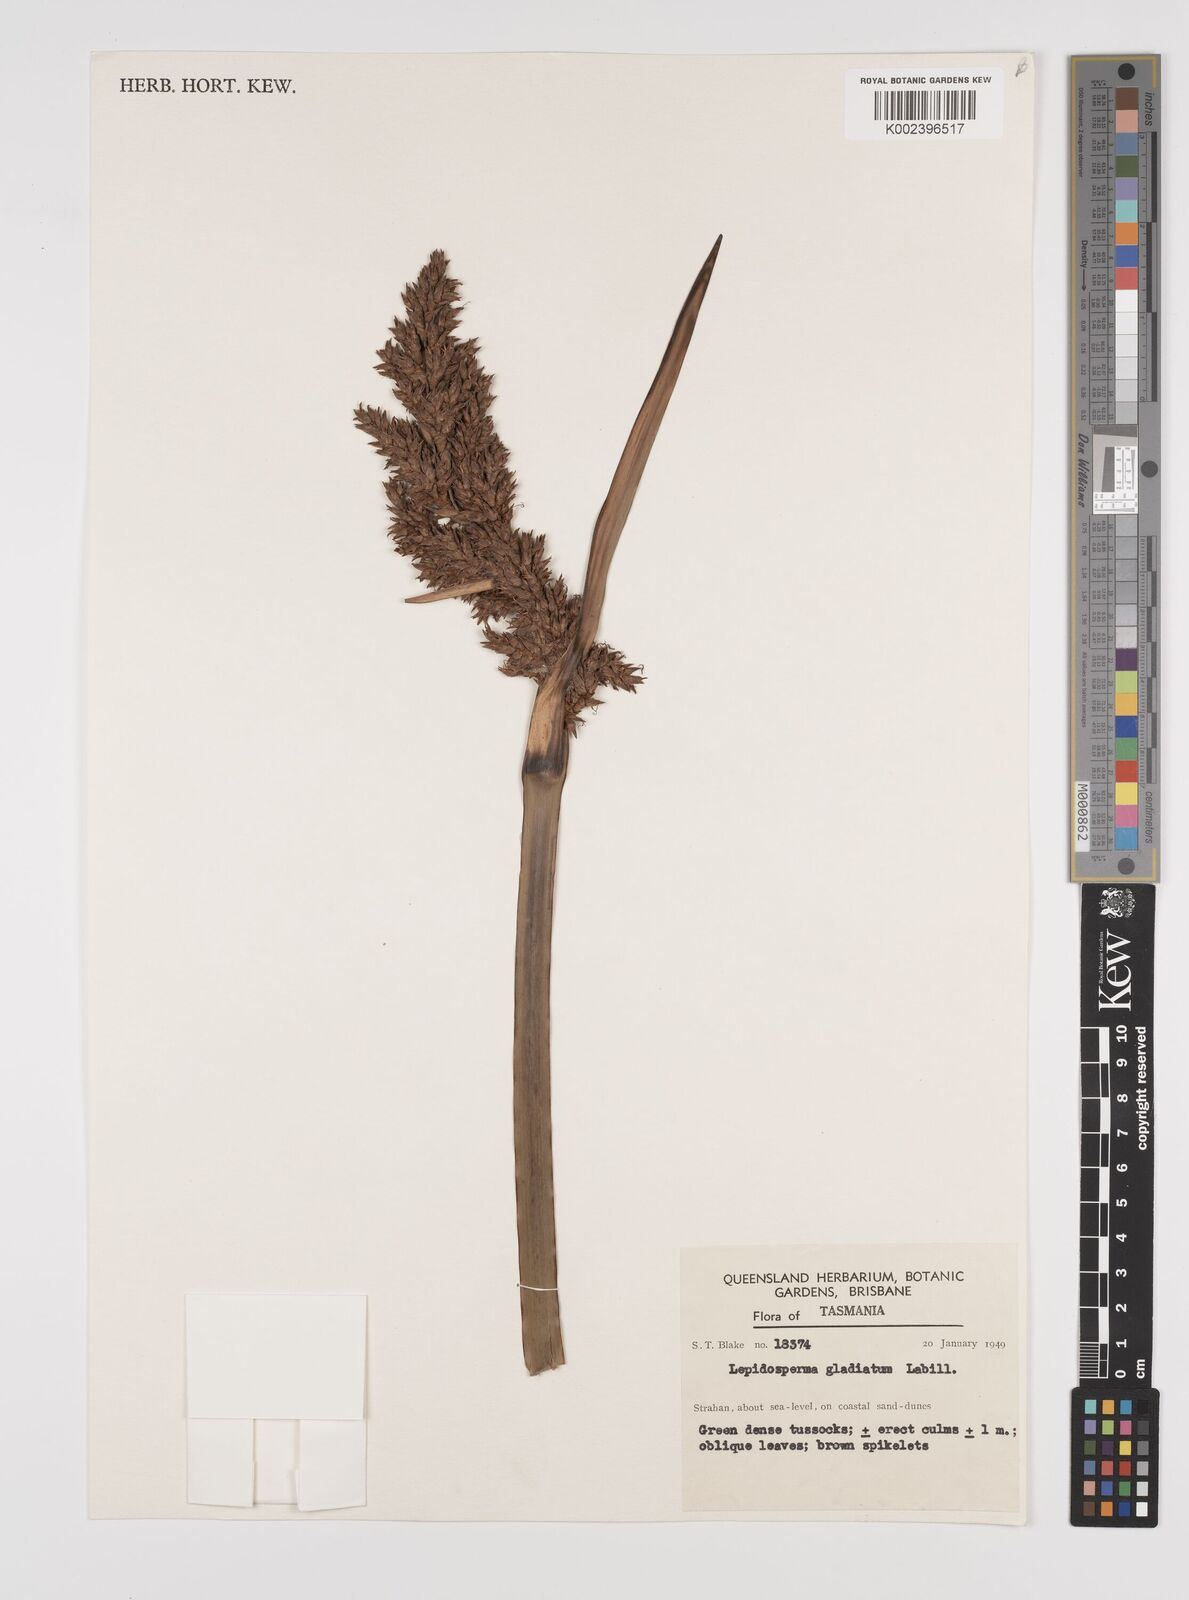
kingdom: Plantae
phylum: Tracheophyta
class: Liliopsida
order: Poales
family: Cyperaceae
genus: Lepidosperma
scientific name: Lepidosperma gladiatum
